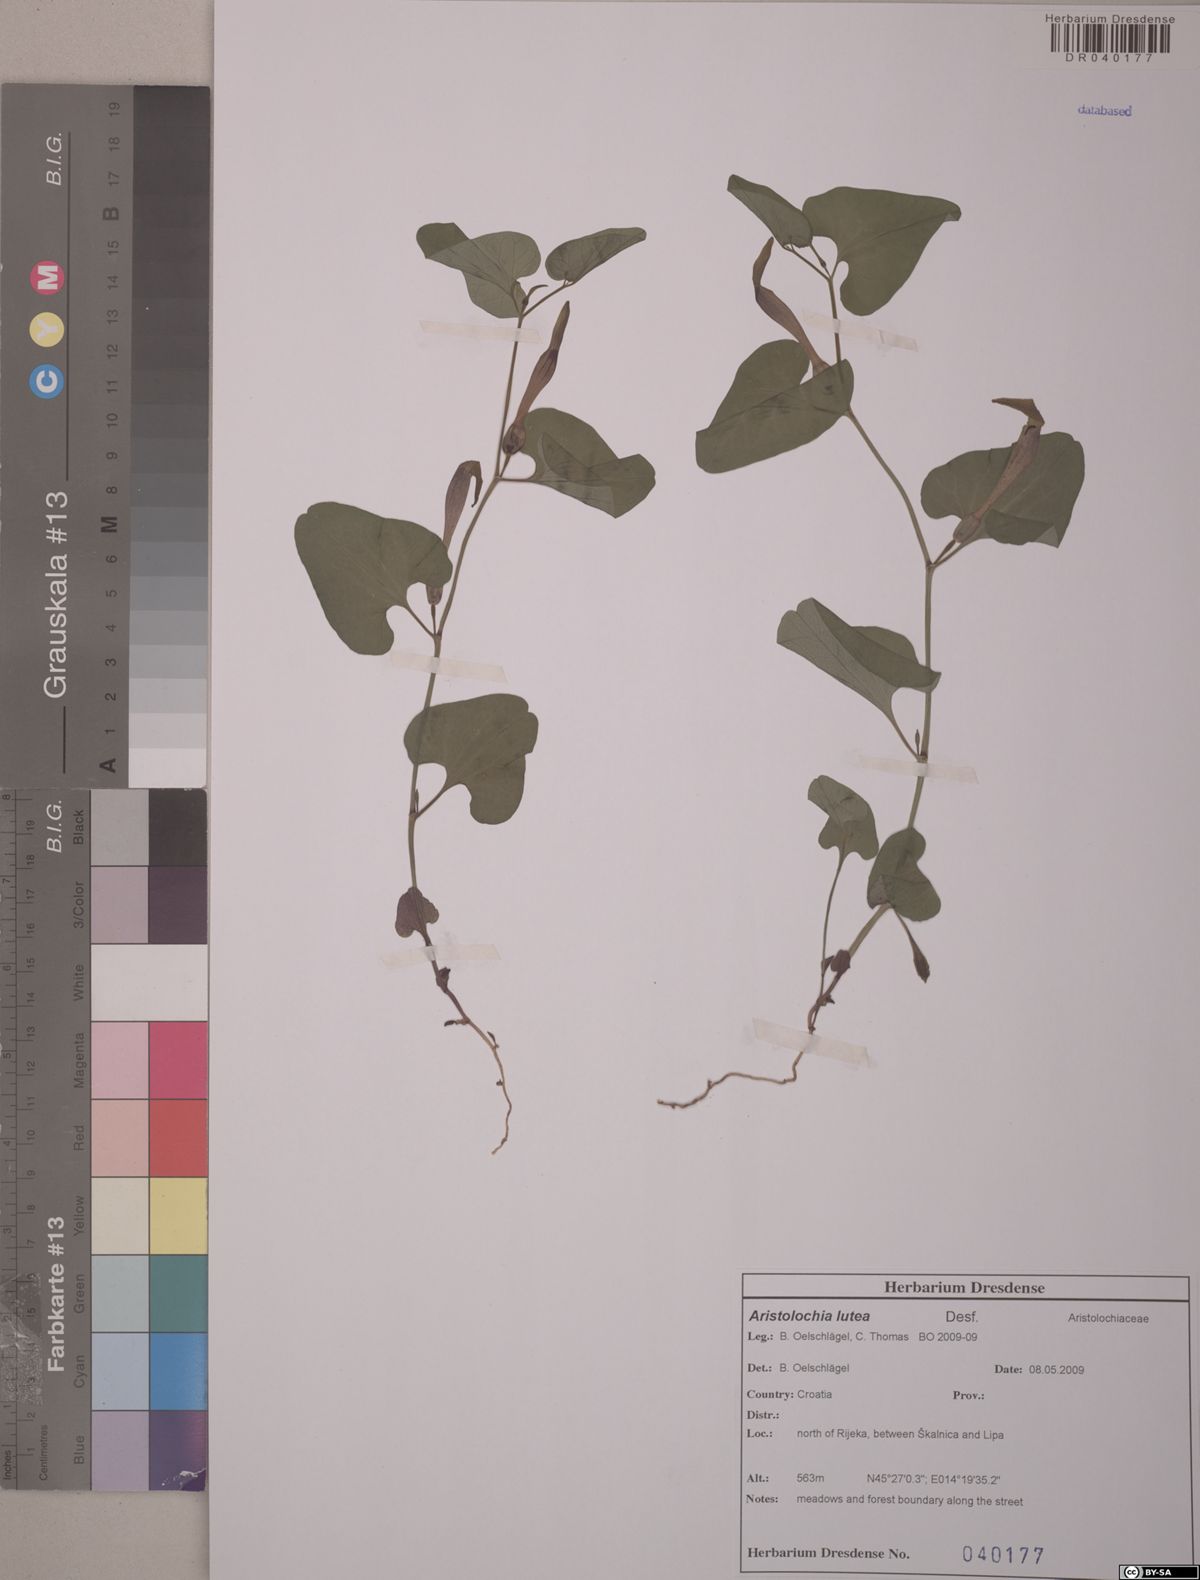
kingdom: Plantae
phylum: Tracheophyta
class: Magnoliopsida
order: Piperales
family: Aristolochiaceae
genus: Aristolochia
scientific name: Aristolochia lutea
